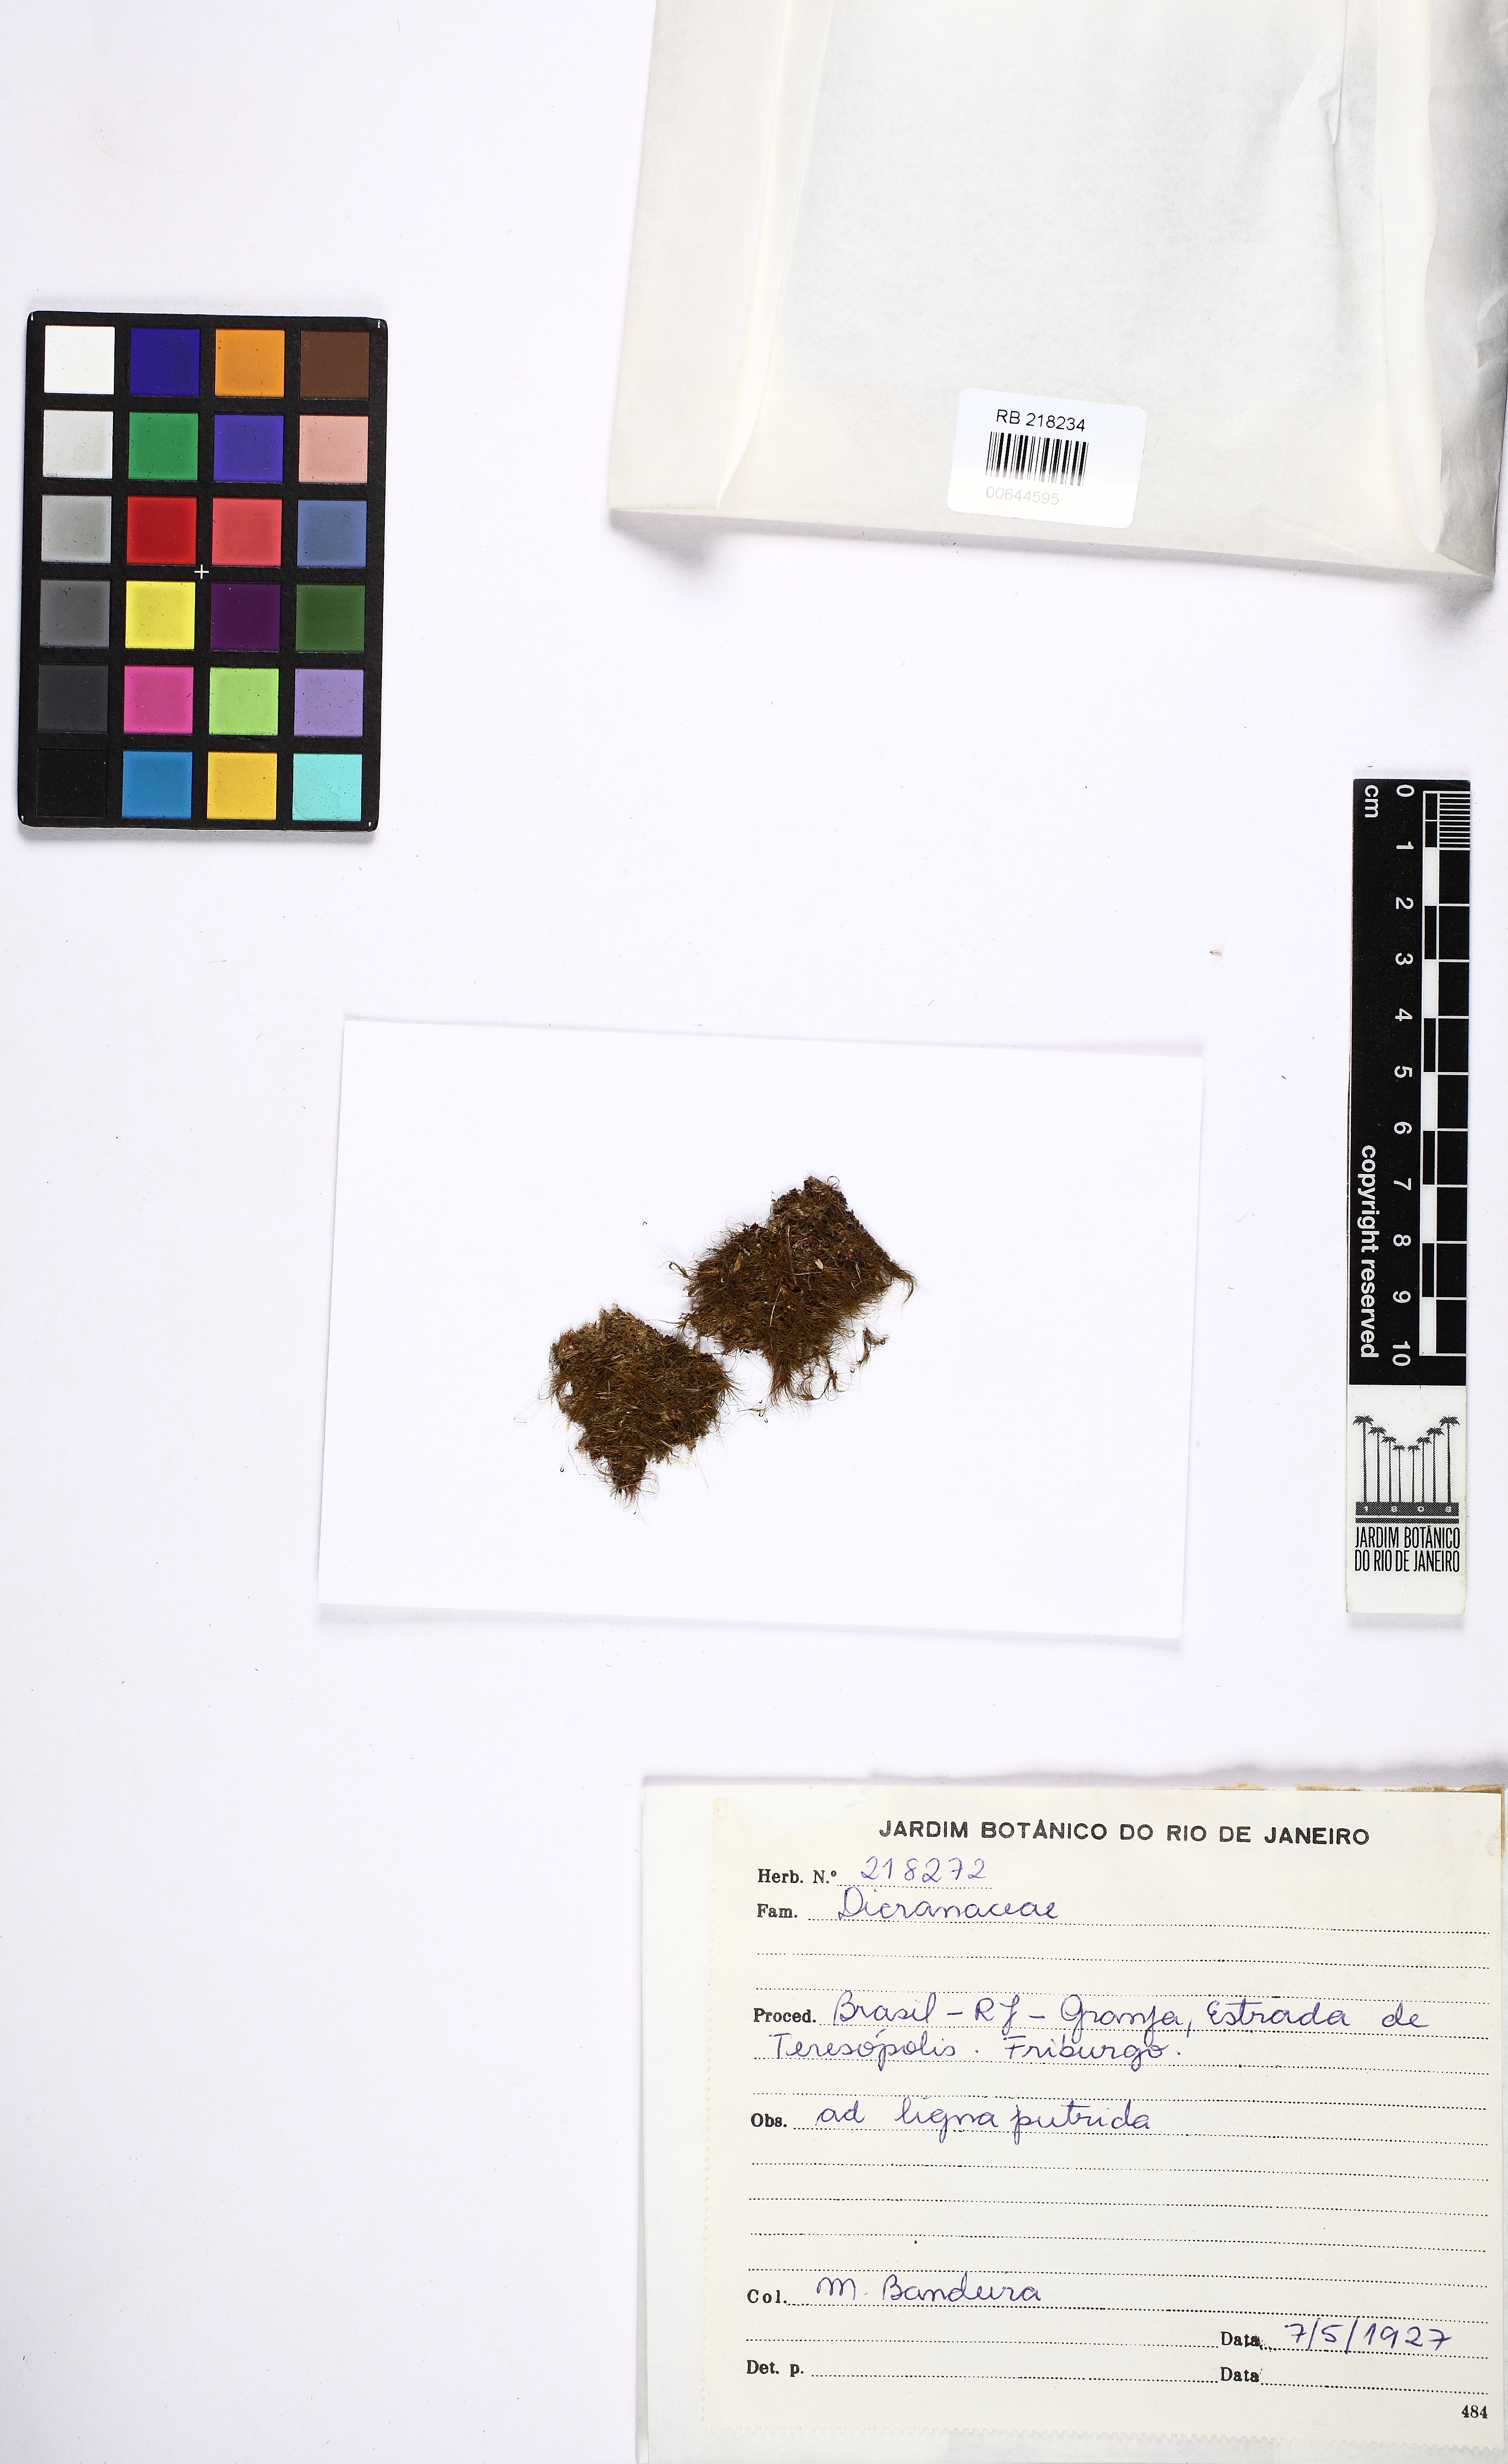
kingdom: Plantae
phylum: Bryophyta
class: Bryopsida
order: Dicranales
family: Dicranaceae
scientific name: Dicranaceae
